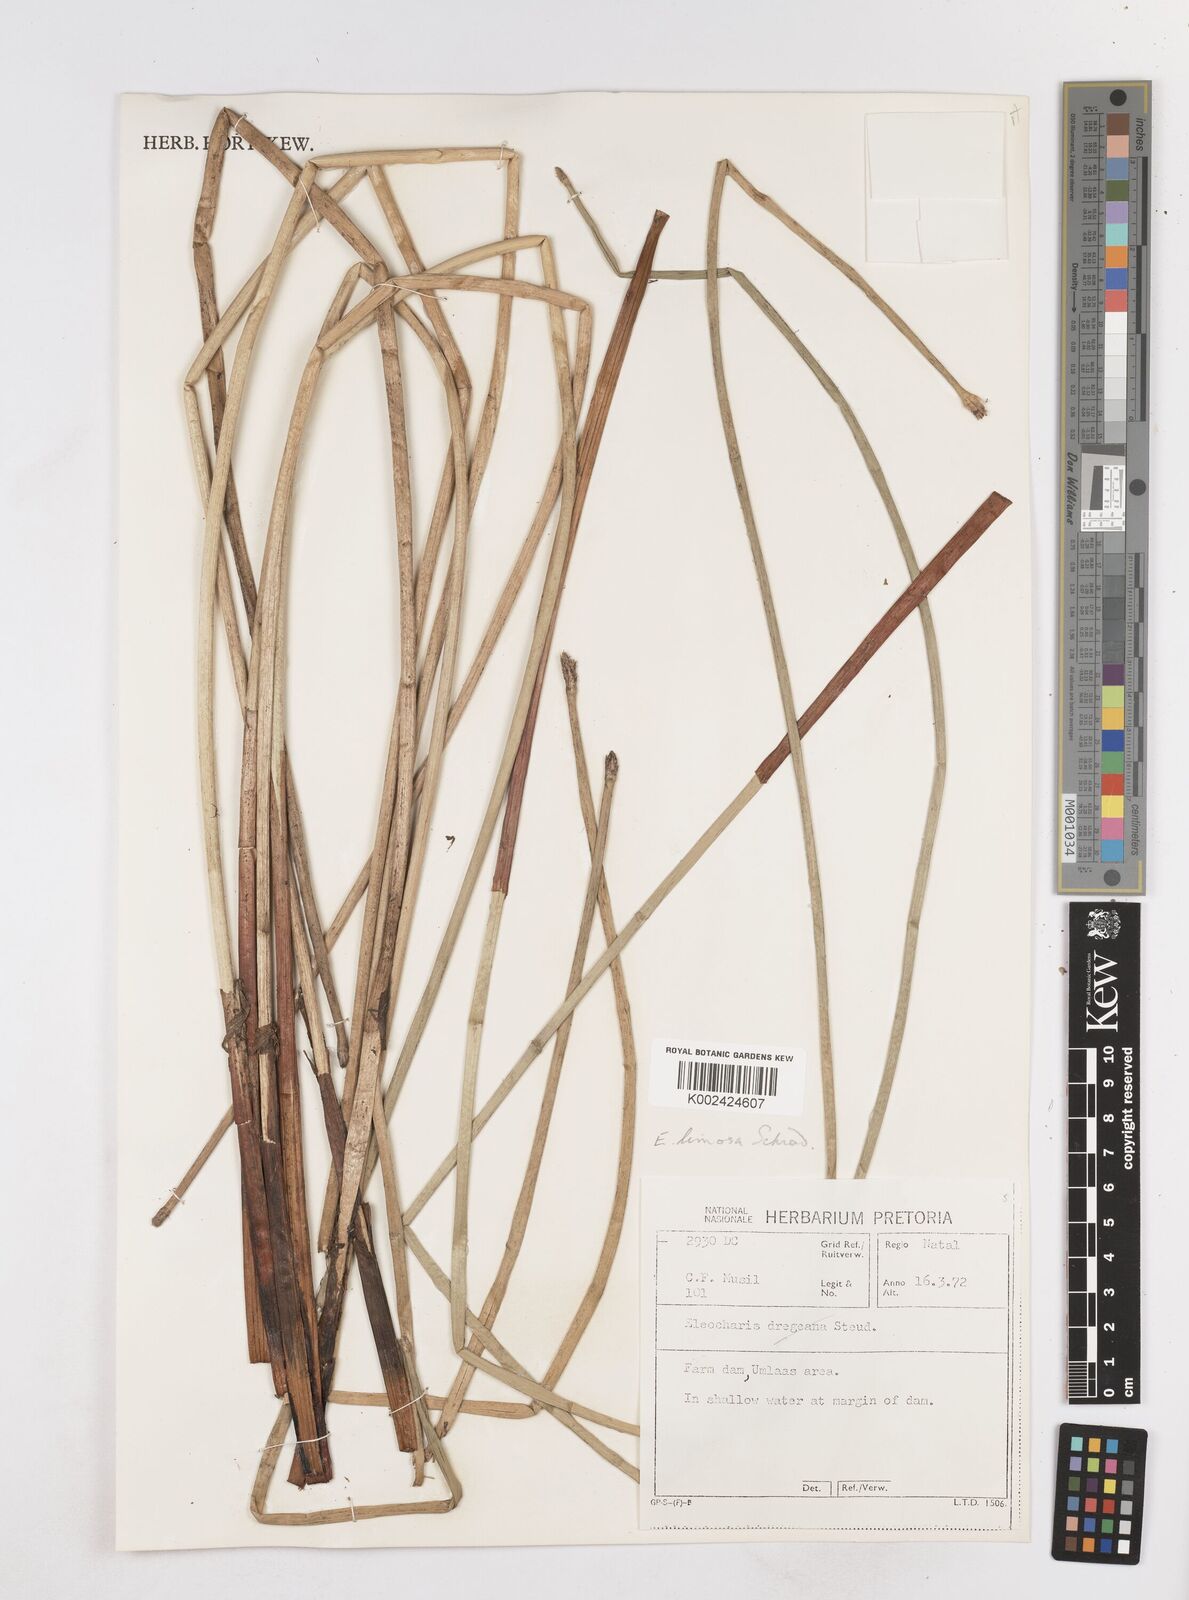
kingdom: Plantae
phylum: Tracheophyta
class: Liliopsida
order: Poales
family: Cyperaceae
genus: Eleocharis
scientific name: Eleocharis limosa
